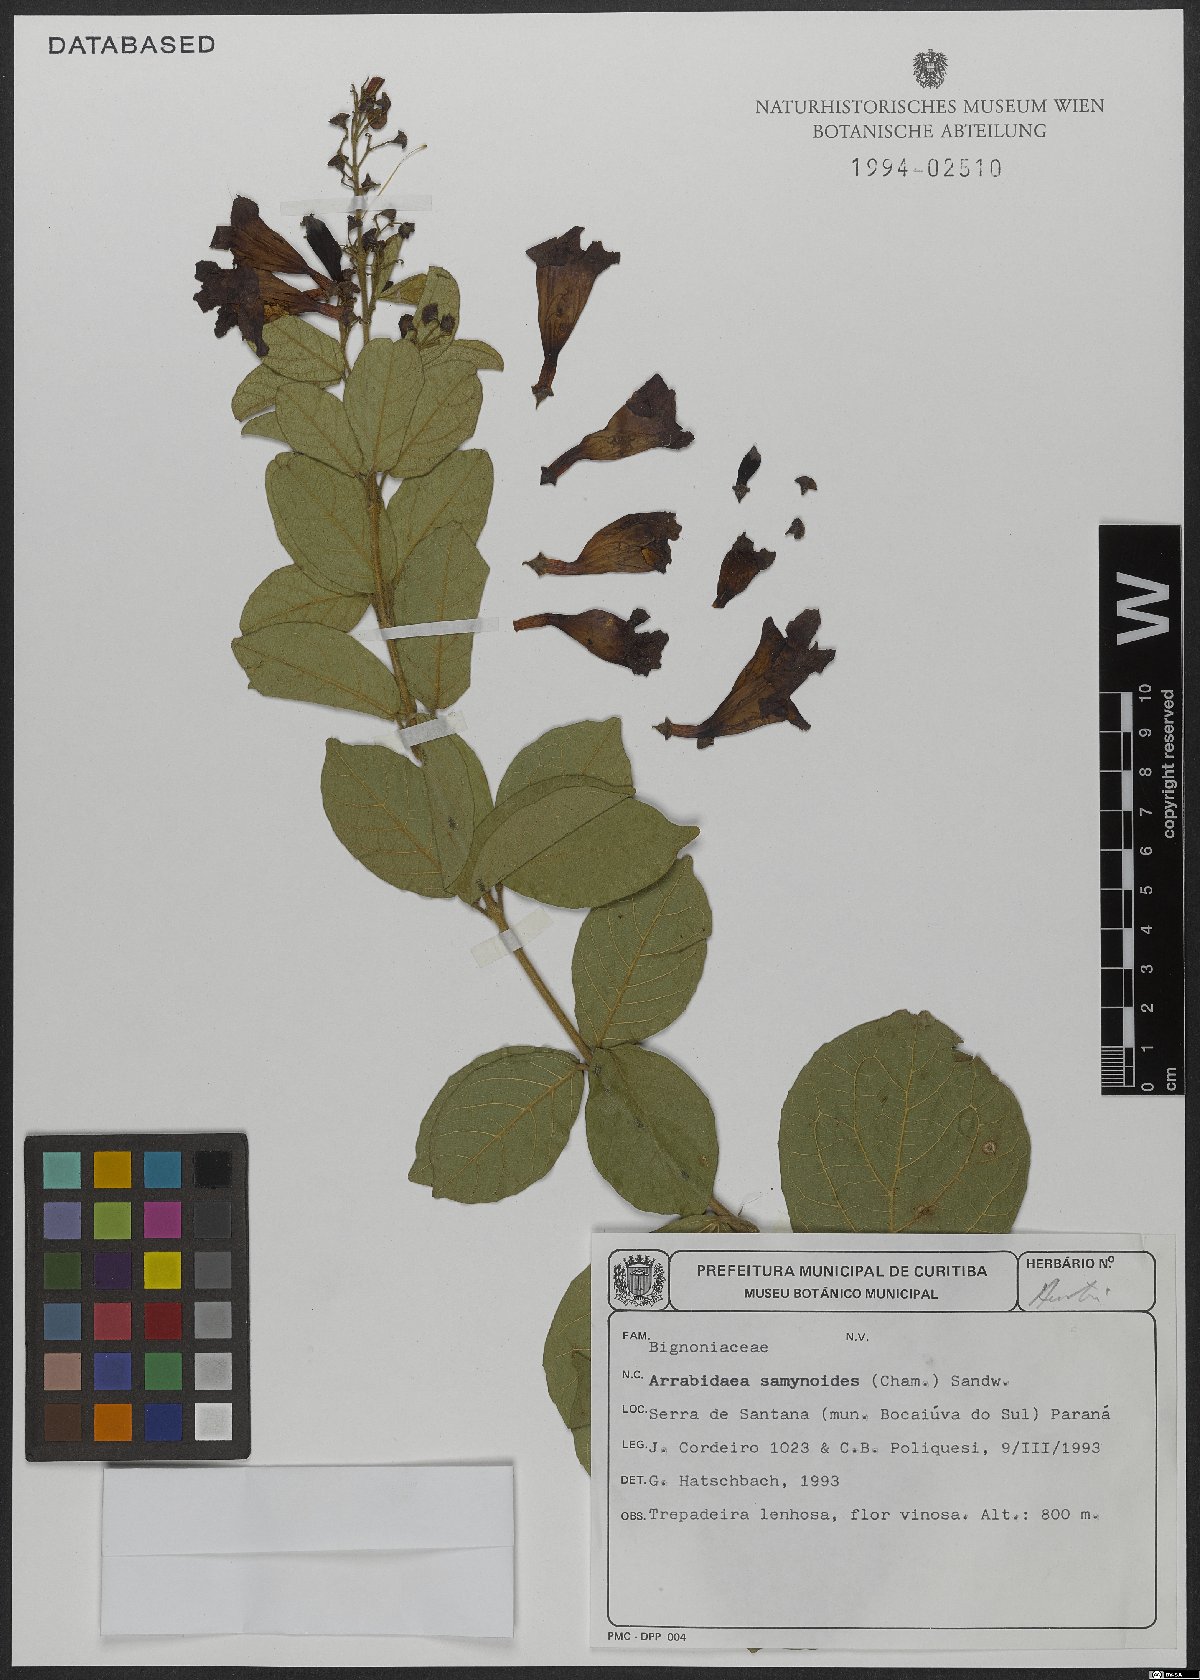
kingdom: Plantae
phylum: Tracheophyta
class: Magnoliopsida
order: Lamiales
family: Bignoniaceae
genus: Fridericia
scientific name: Fridericia samydoides
